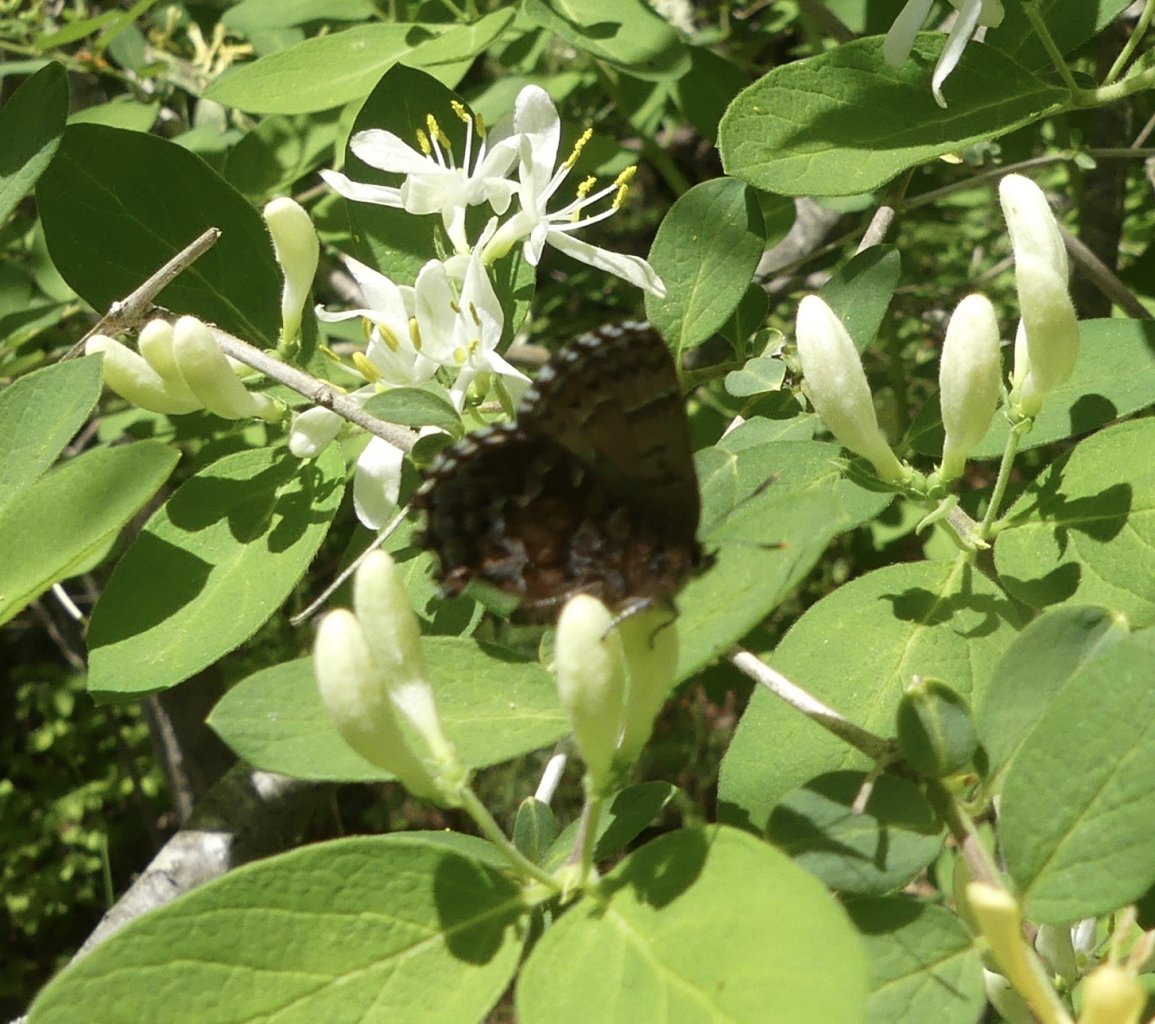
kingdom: Animalia
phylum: Arthropoda
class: Insecta
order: Lepidoptera
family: Lycaenidae
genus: Incisalia
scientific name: Incisalia niphon
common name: Eastern Pine Elfin
